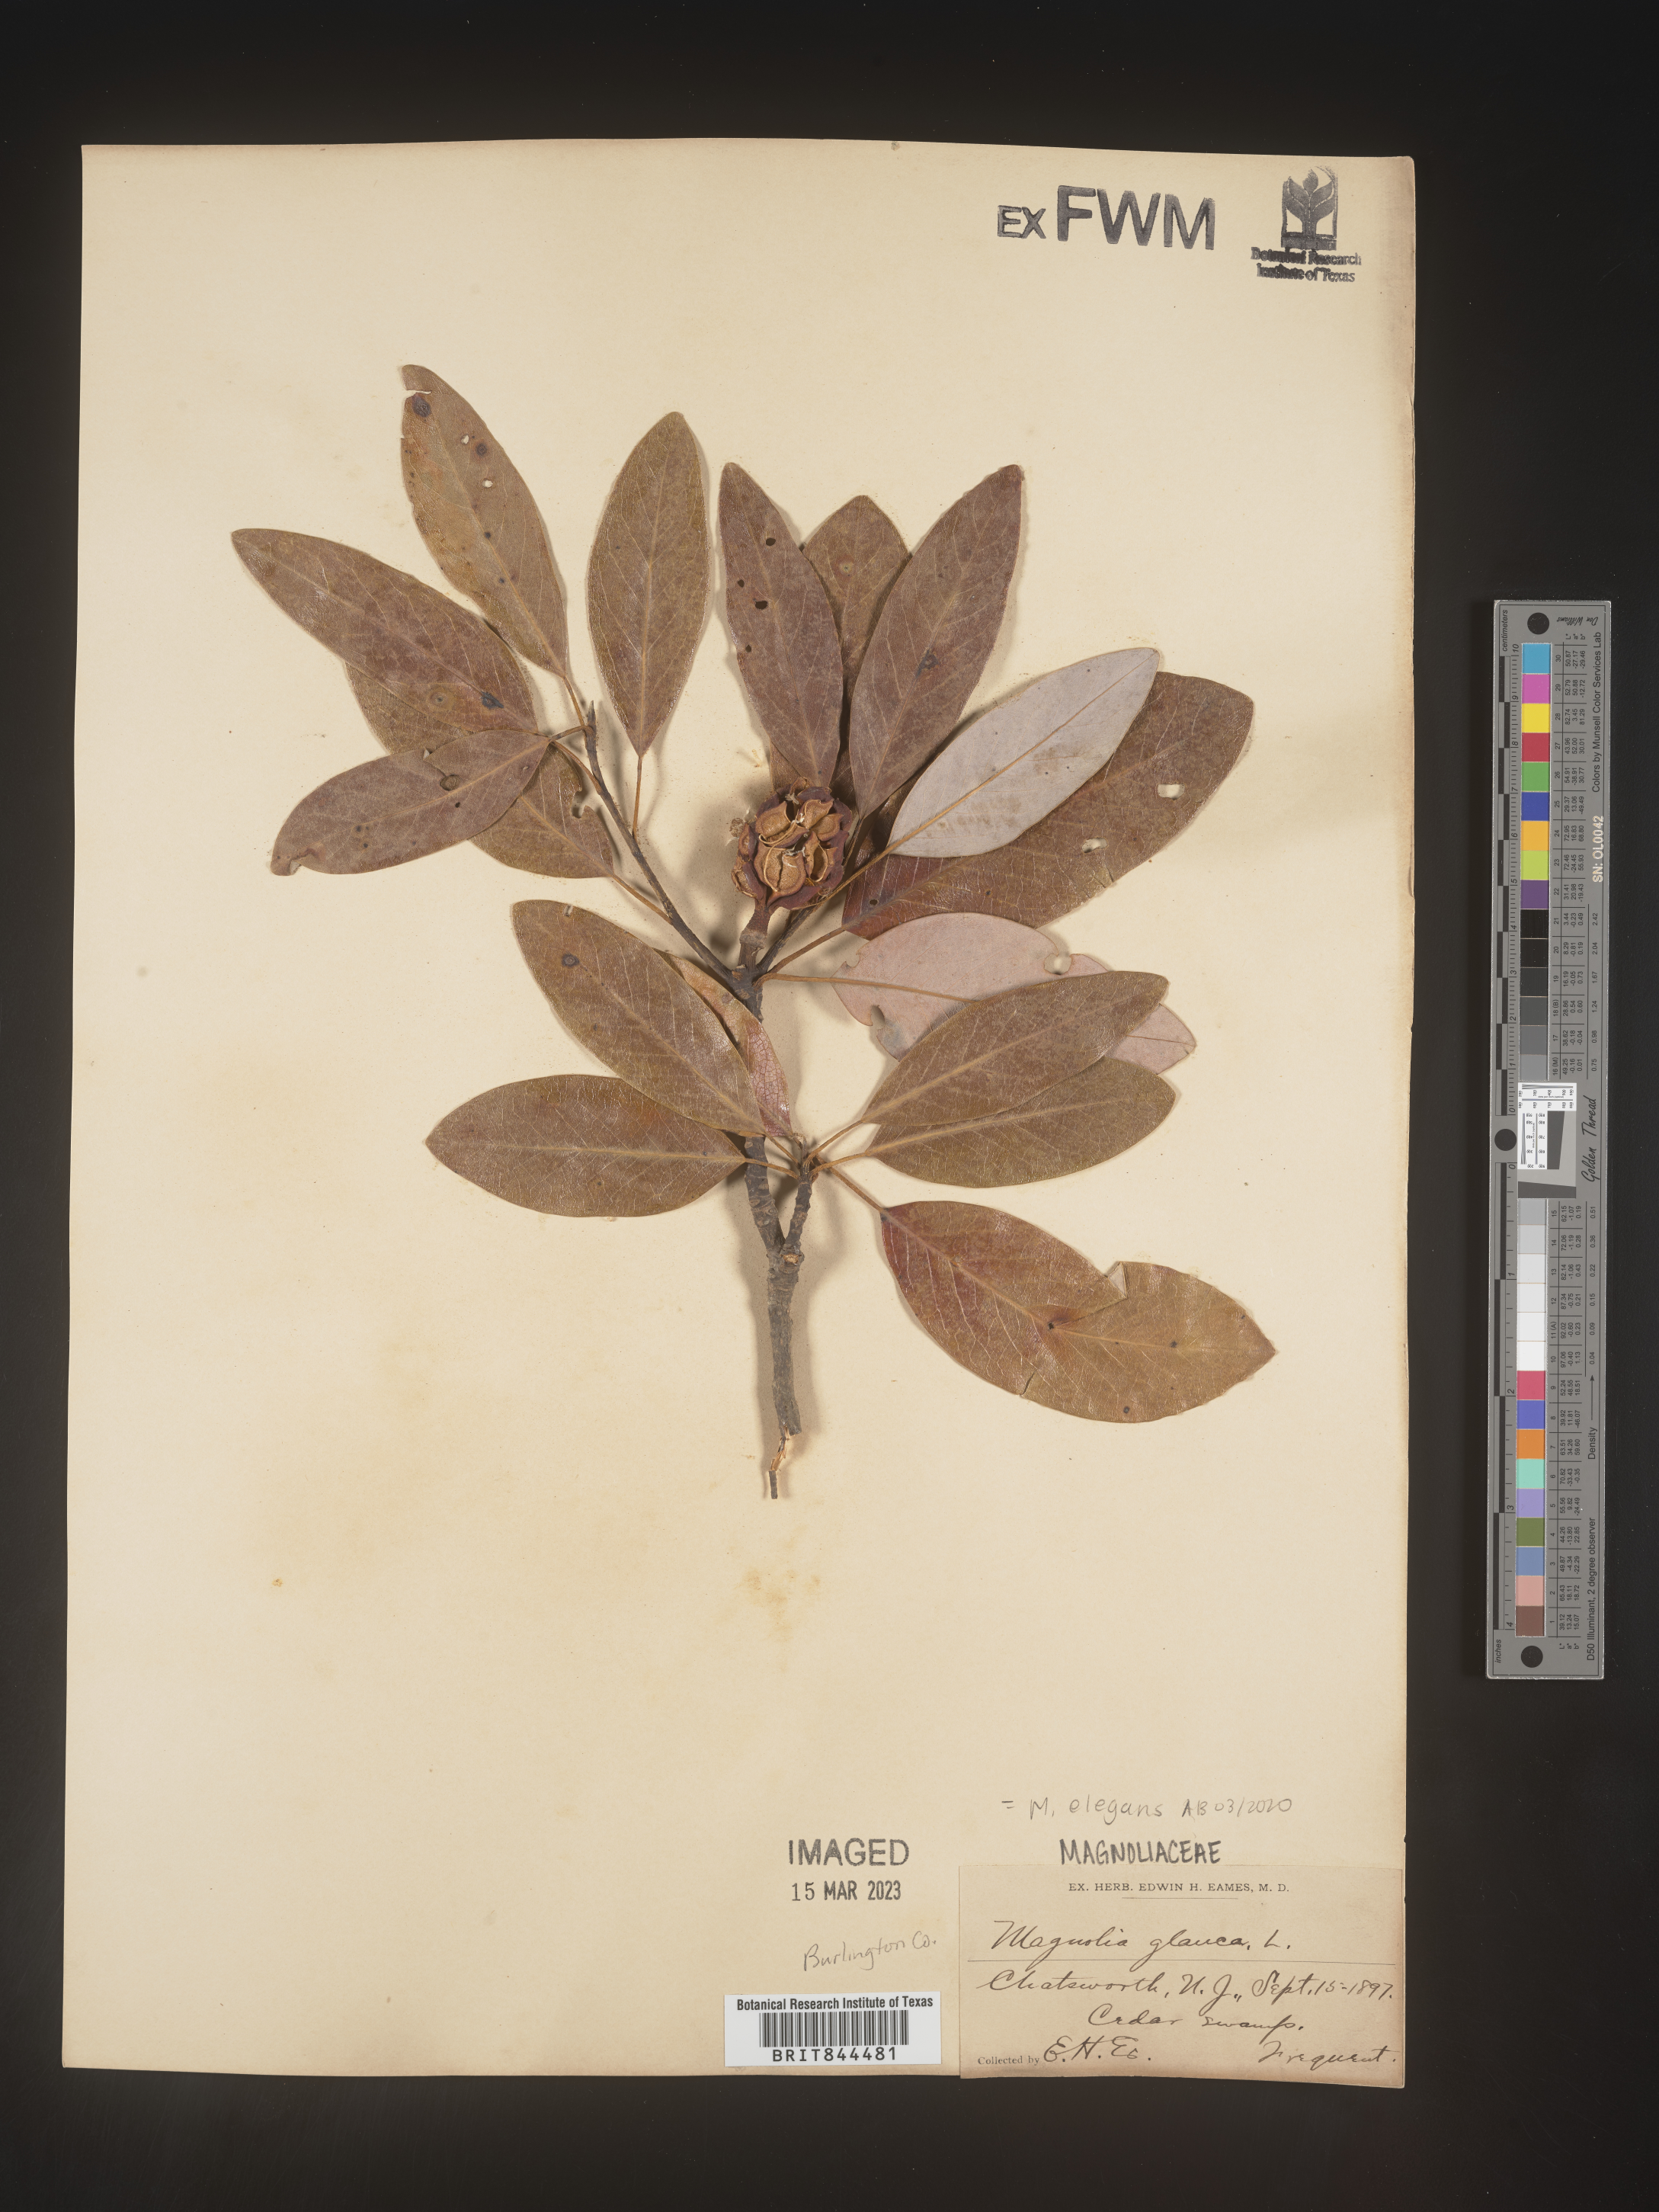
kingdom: Plantae
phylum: Tracheophyta
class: Magnoliopsida
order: Magnoliales
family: Magnoliaceae
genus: Magnolia
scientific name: Magnolia
